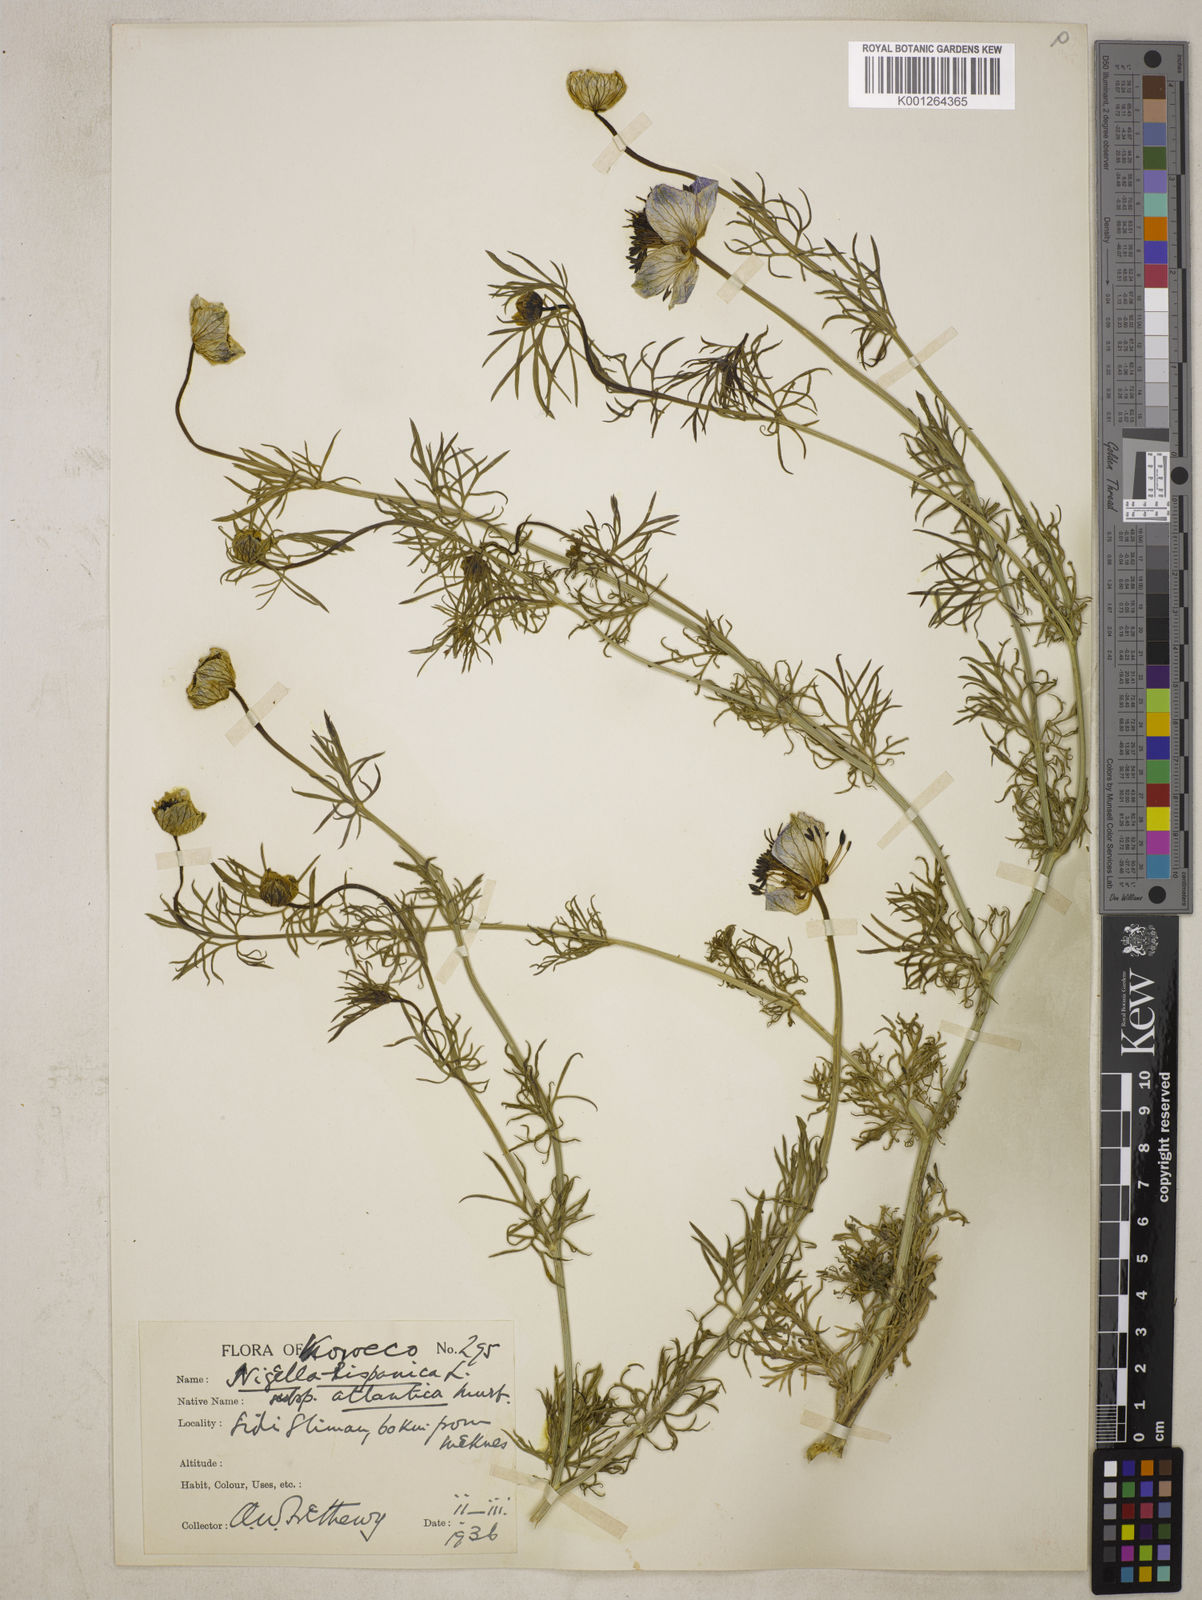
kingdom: Plantae
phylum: Tracheophyta
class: Magnoliopsida
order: Ranunculales
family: Ranunculaceae
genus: Nigella
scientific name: Nigella hispanica
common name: Fennel-flower
